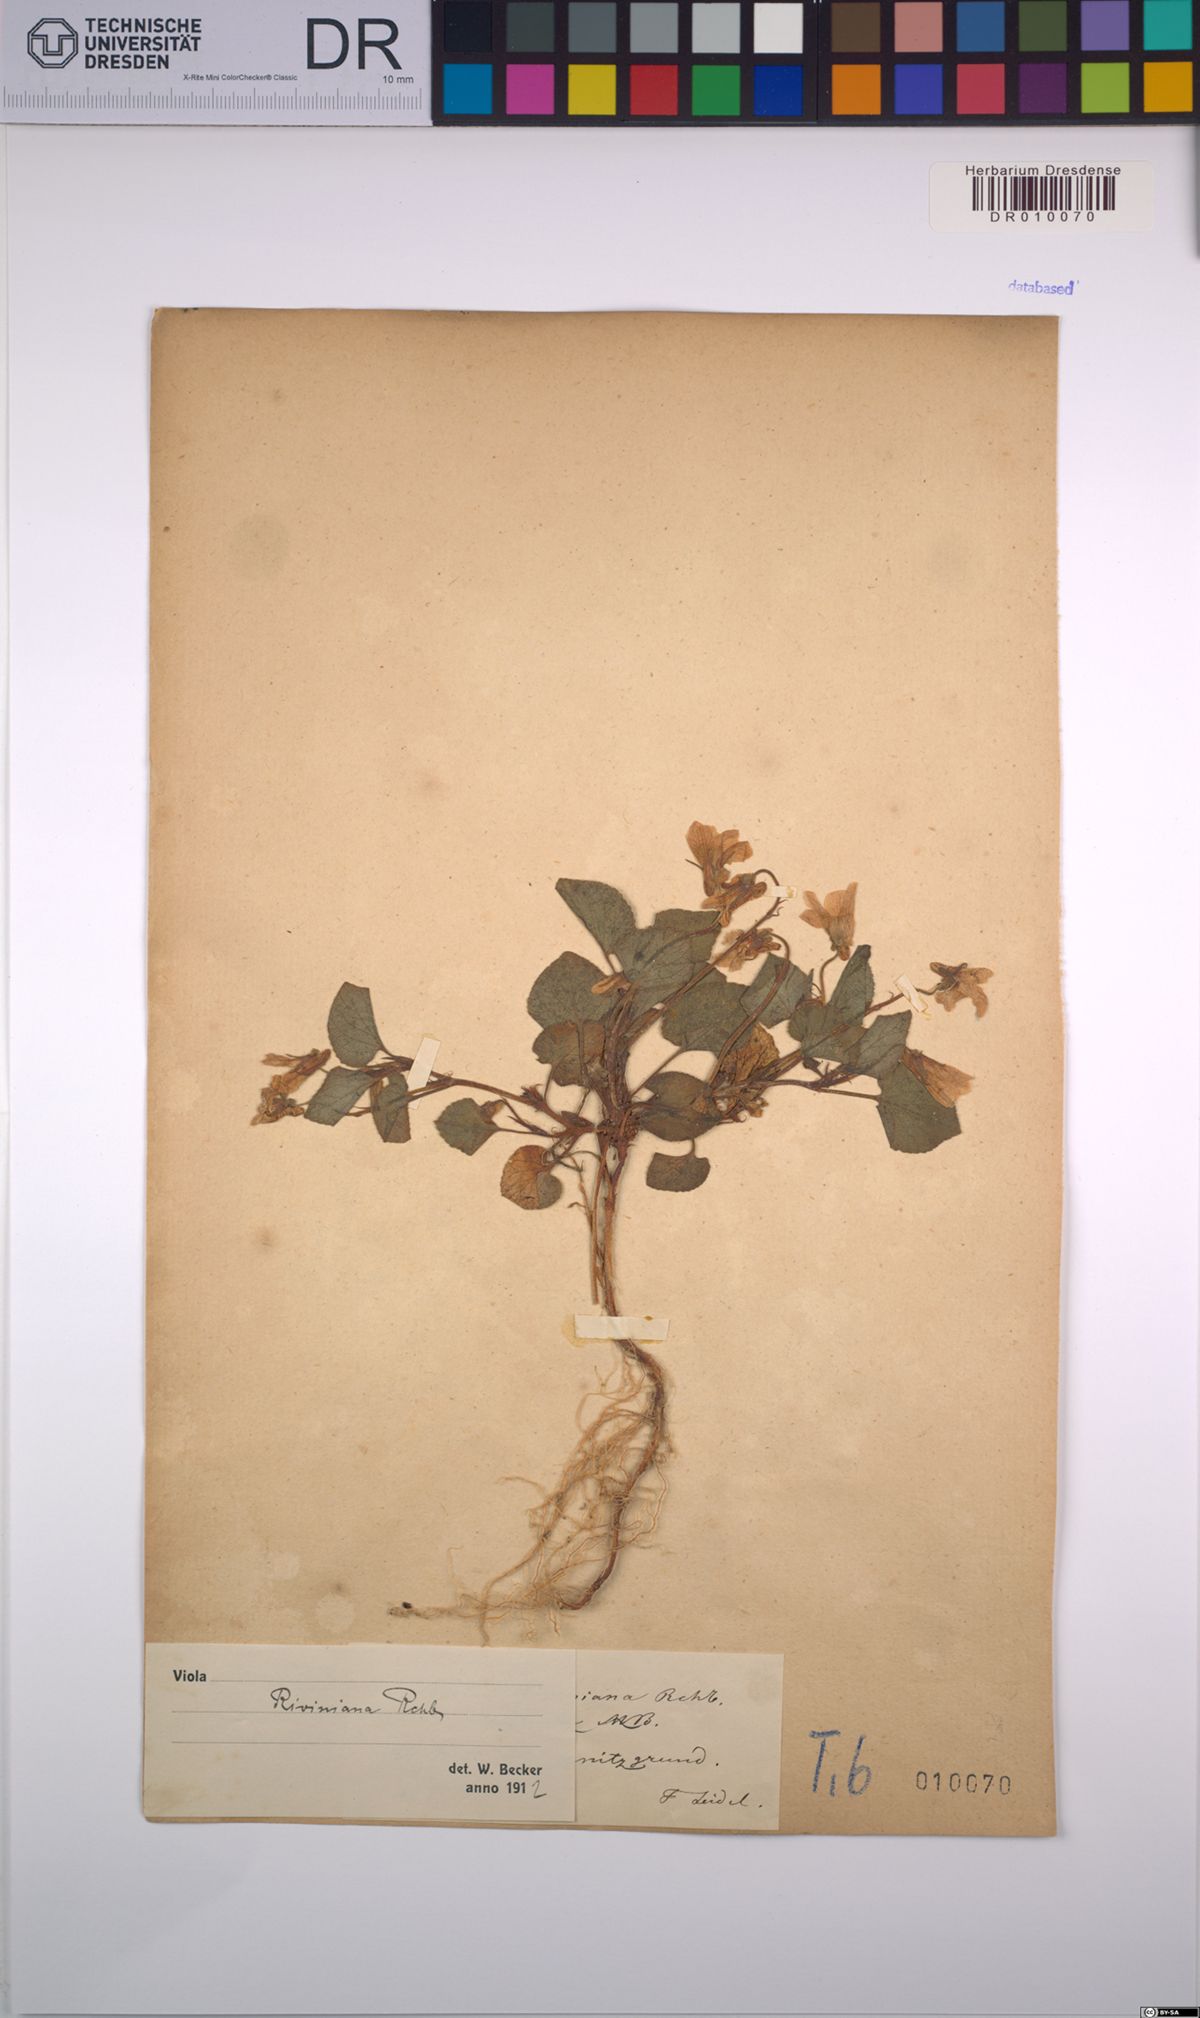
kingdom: Plantae
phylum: Tracheophyta
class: Magnoliopsida
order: Malpighiales
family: Violaceae
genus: Viola
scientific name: Viola riviniana
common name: Common dog-violet
